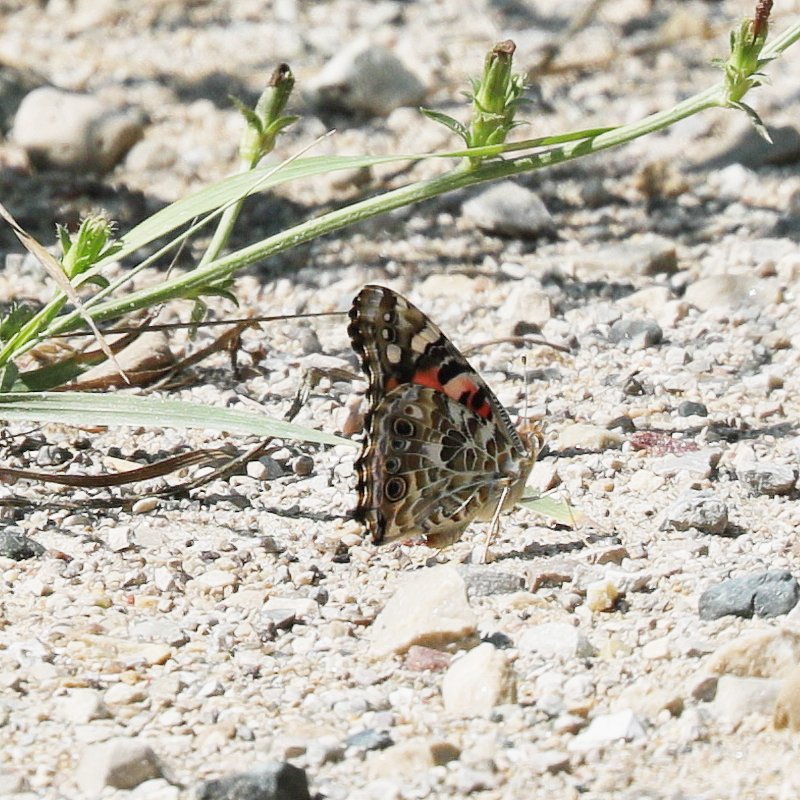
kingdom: Animalia
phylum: Arthropoda
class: Insecta
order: Lepidoptera
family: Nymphalidae
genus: Vanessa
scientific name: Vanessa cardui
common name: Painted Lady
